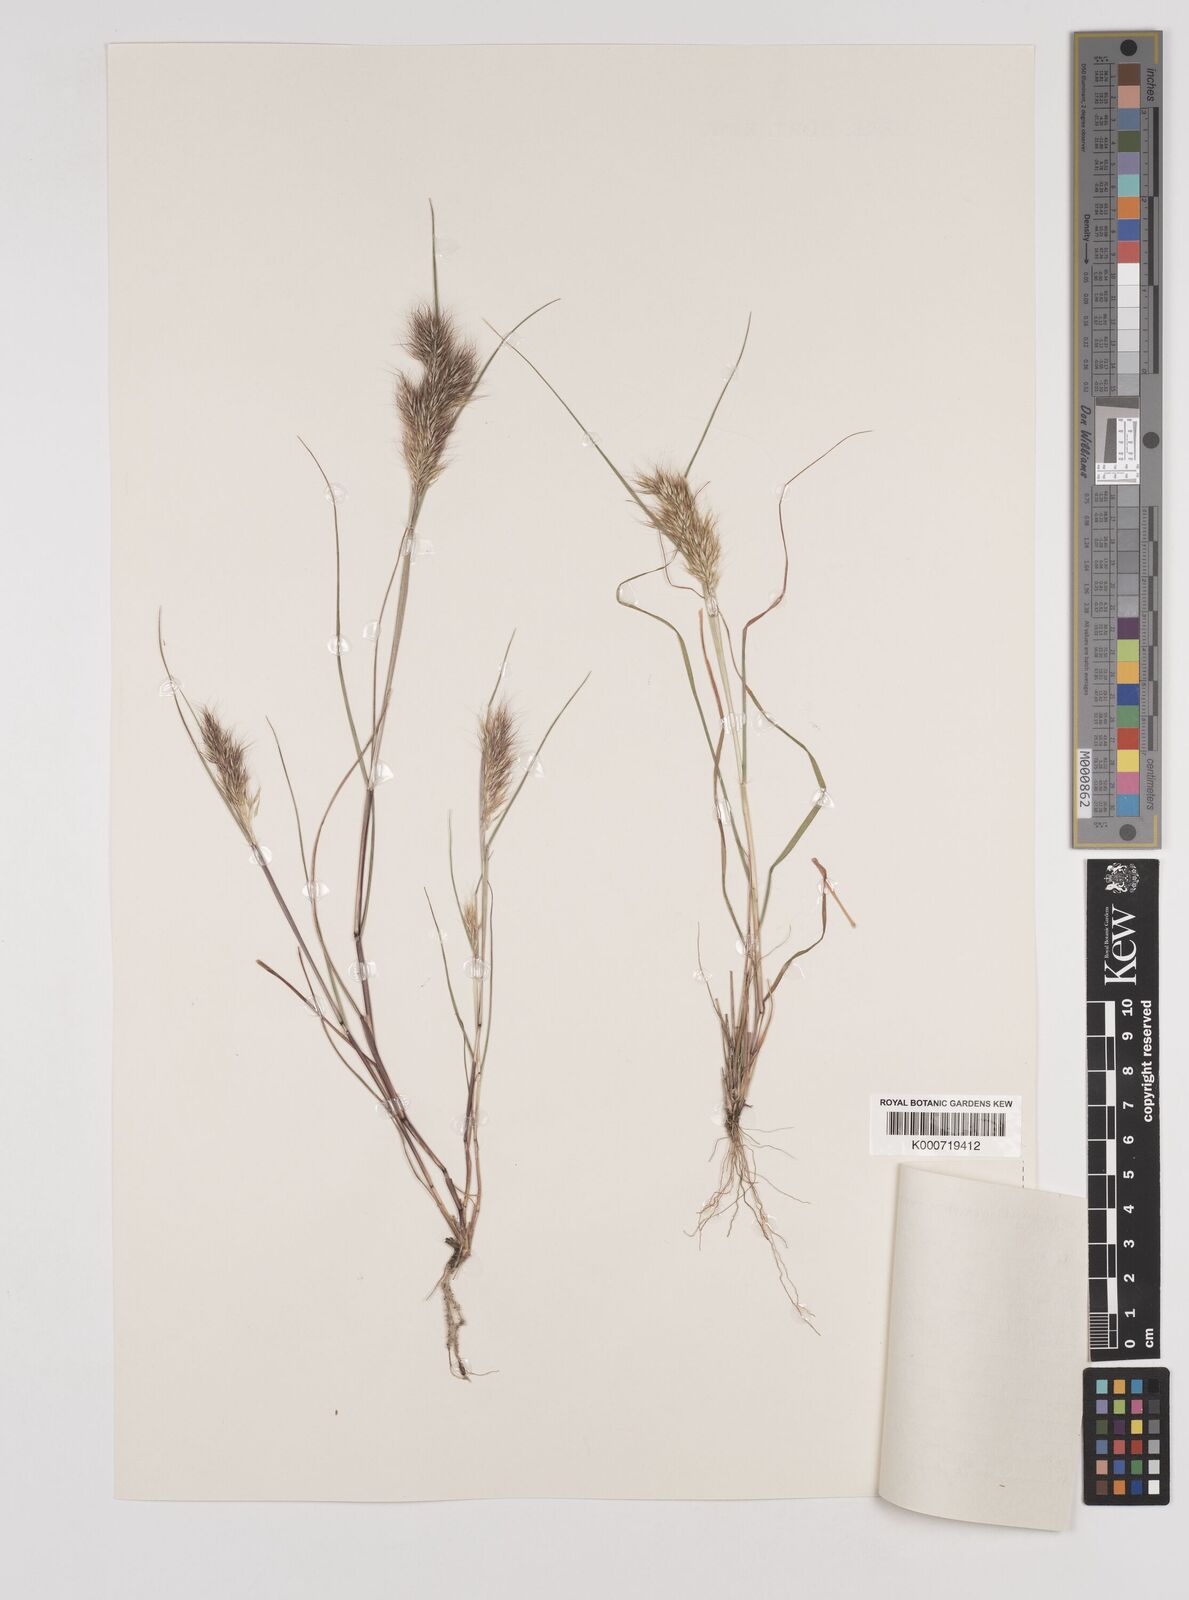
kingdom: Plantae
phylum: Tracheophyta
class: Liliopsida
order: Poales
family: Poaceae
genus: Pentameris
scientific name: Pentameris triseta
